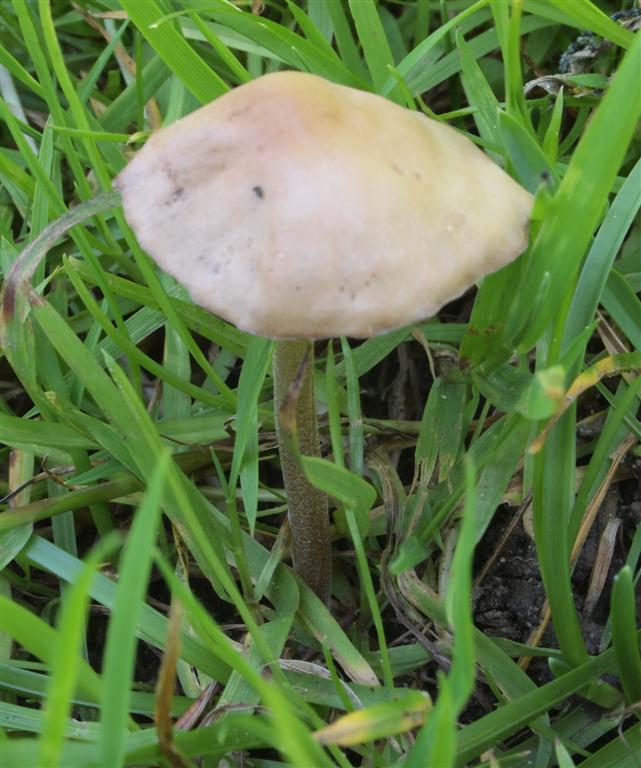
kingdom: Fungi
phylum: Basidiomycota
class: Agaricomycetes
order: Agaricales
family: Bolbitiaceae
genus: Panaeolina
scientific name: Panaeolina foenisecii
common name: høslætsvamp
